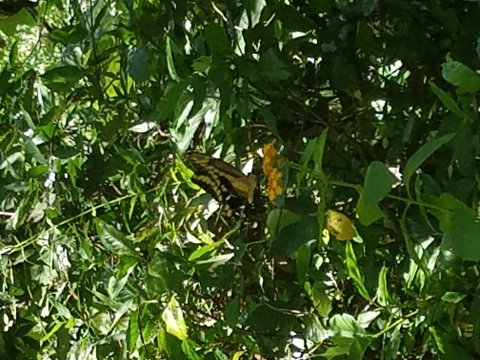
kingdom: Animalia
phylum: Arthropoda
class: Insecta
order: Lepidoptera
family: Papilionidae
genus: Papilio
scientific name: Papilio cresphontes
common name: Eastern Giant Swallowtail
